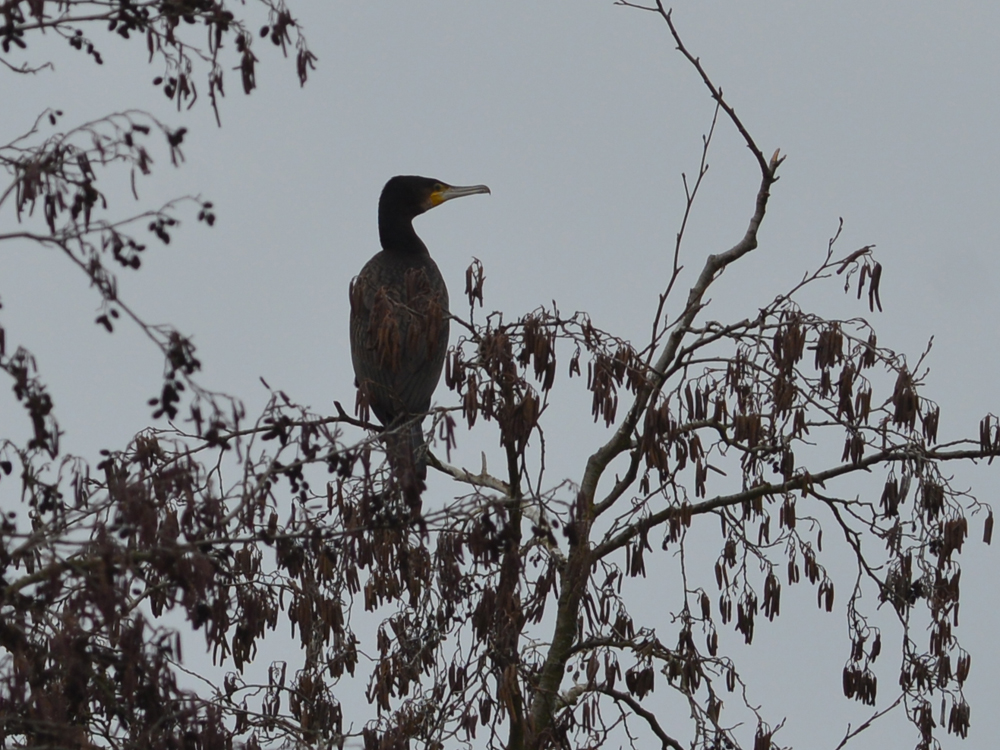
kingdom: Animalia
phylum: Chordata
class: Aves
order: Suliformes
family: Phalacrocoracidae
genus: Phalacrocorax
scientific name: Phalacrocorax carbo
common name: Great cormorant
